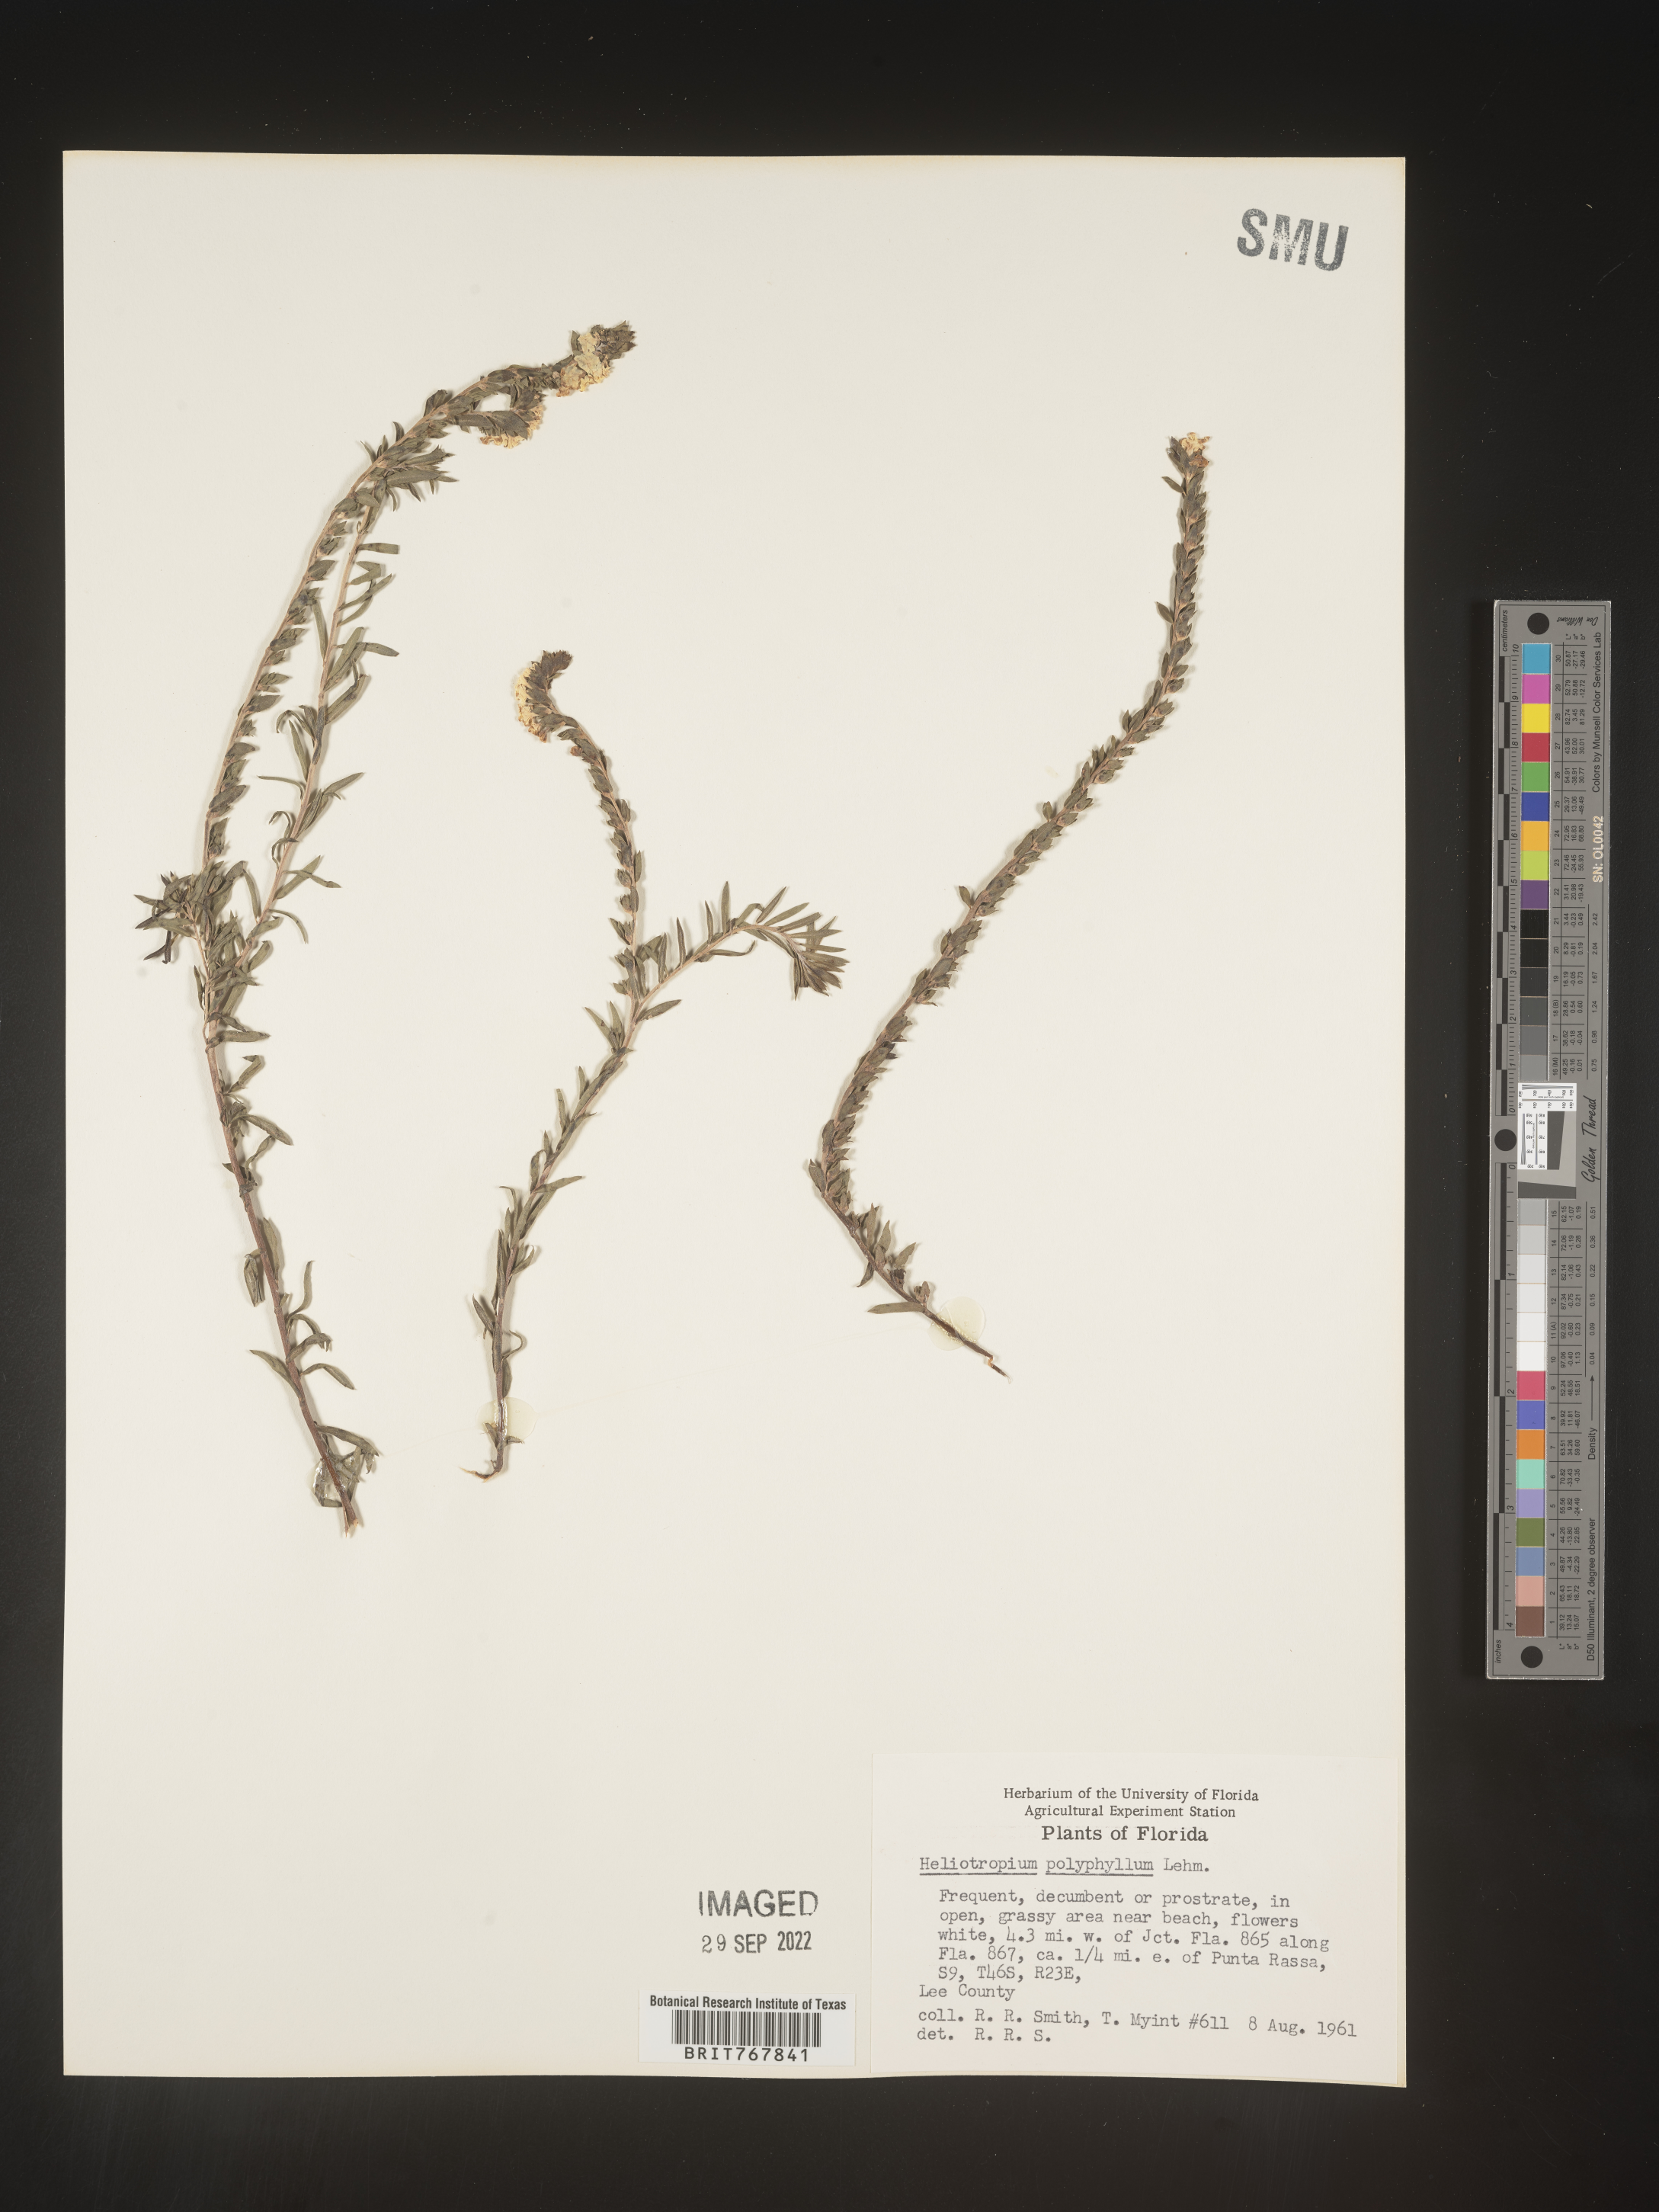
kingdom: Plantae
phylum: Tracheophyta
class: Magnoliopsida
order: Boraginales
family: Heliotropiaceae
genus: Heliotropium
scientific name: Heliotropium
